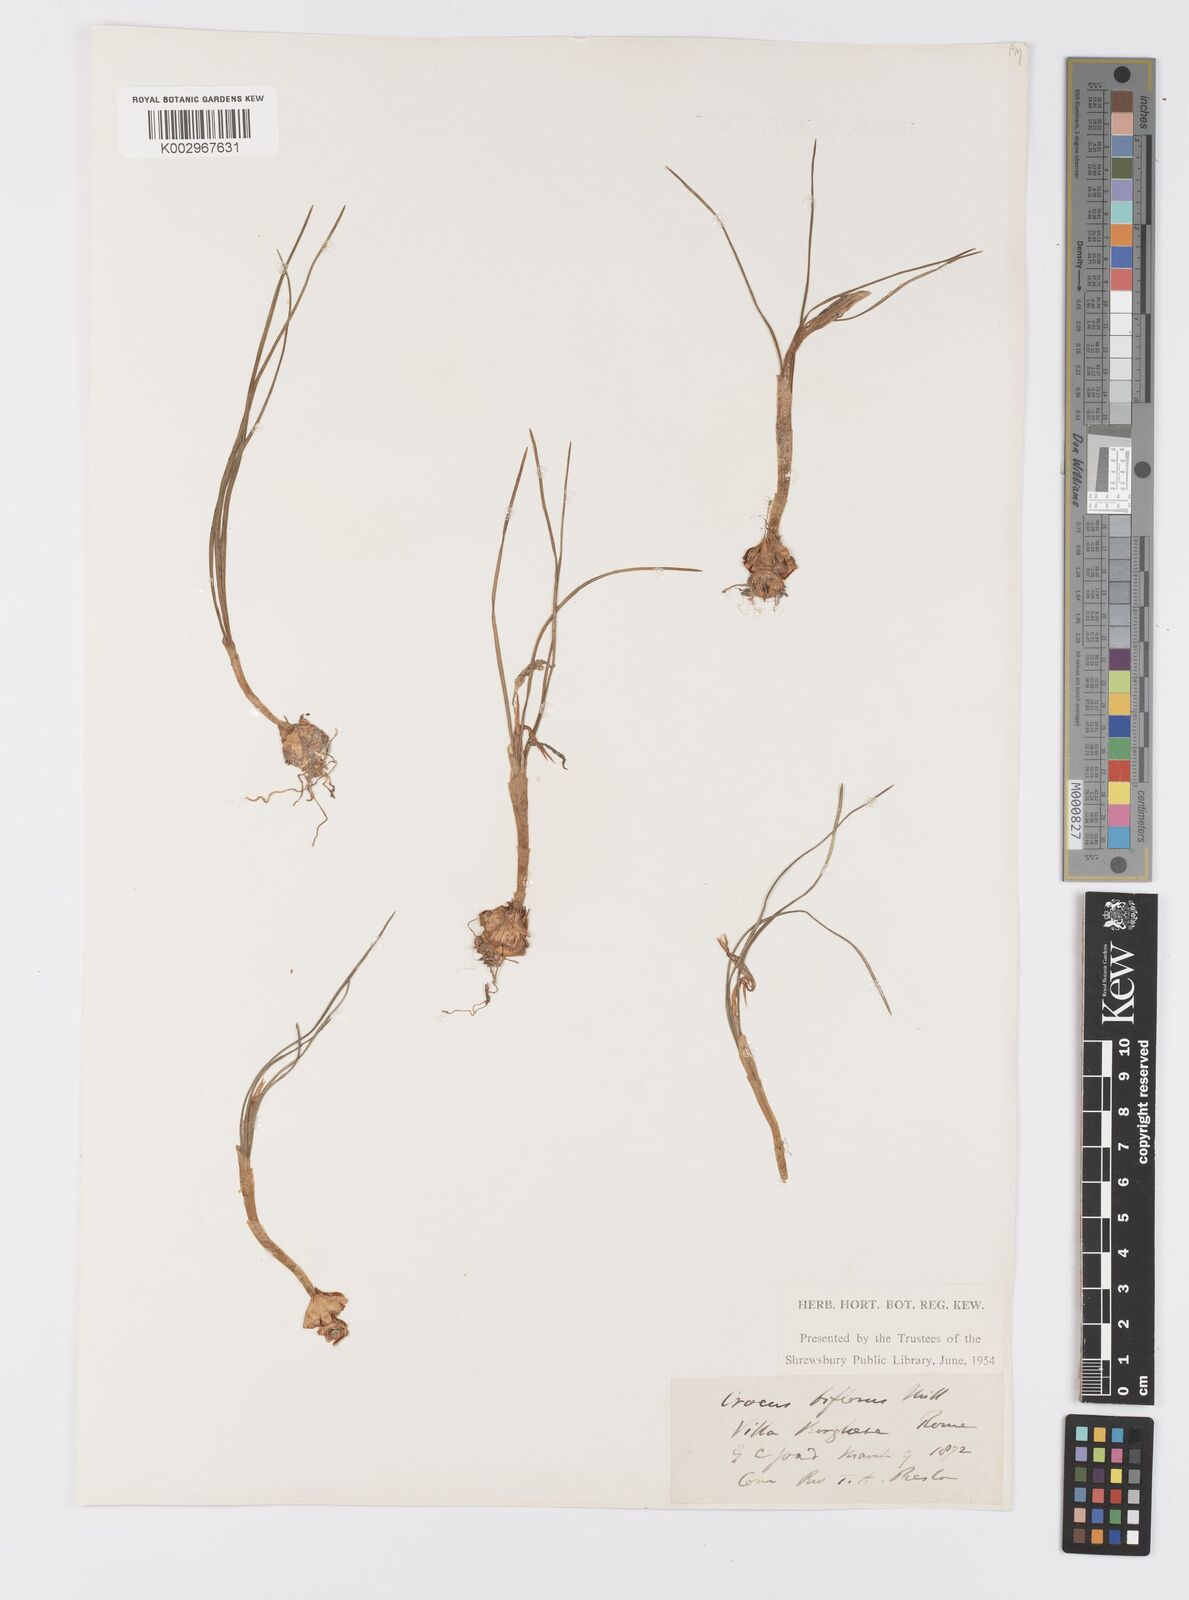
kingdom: Plantae
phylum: Tracheophyta
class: Liliopsida
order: Asparagales
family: Iridaceae
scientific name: Iridaceae
